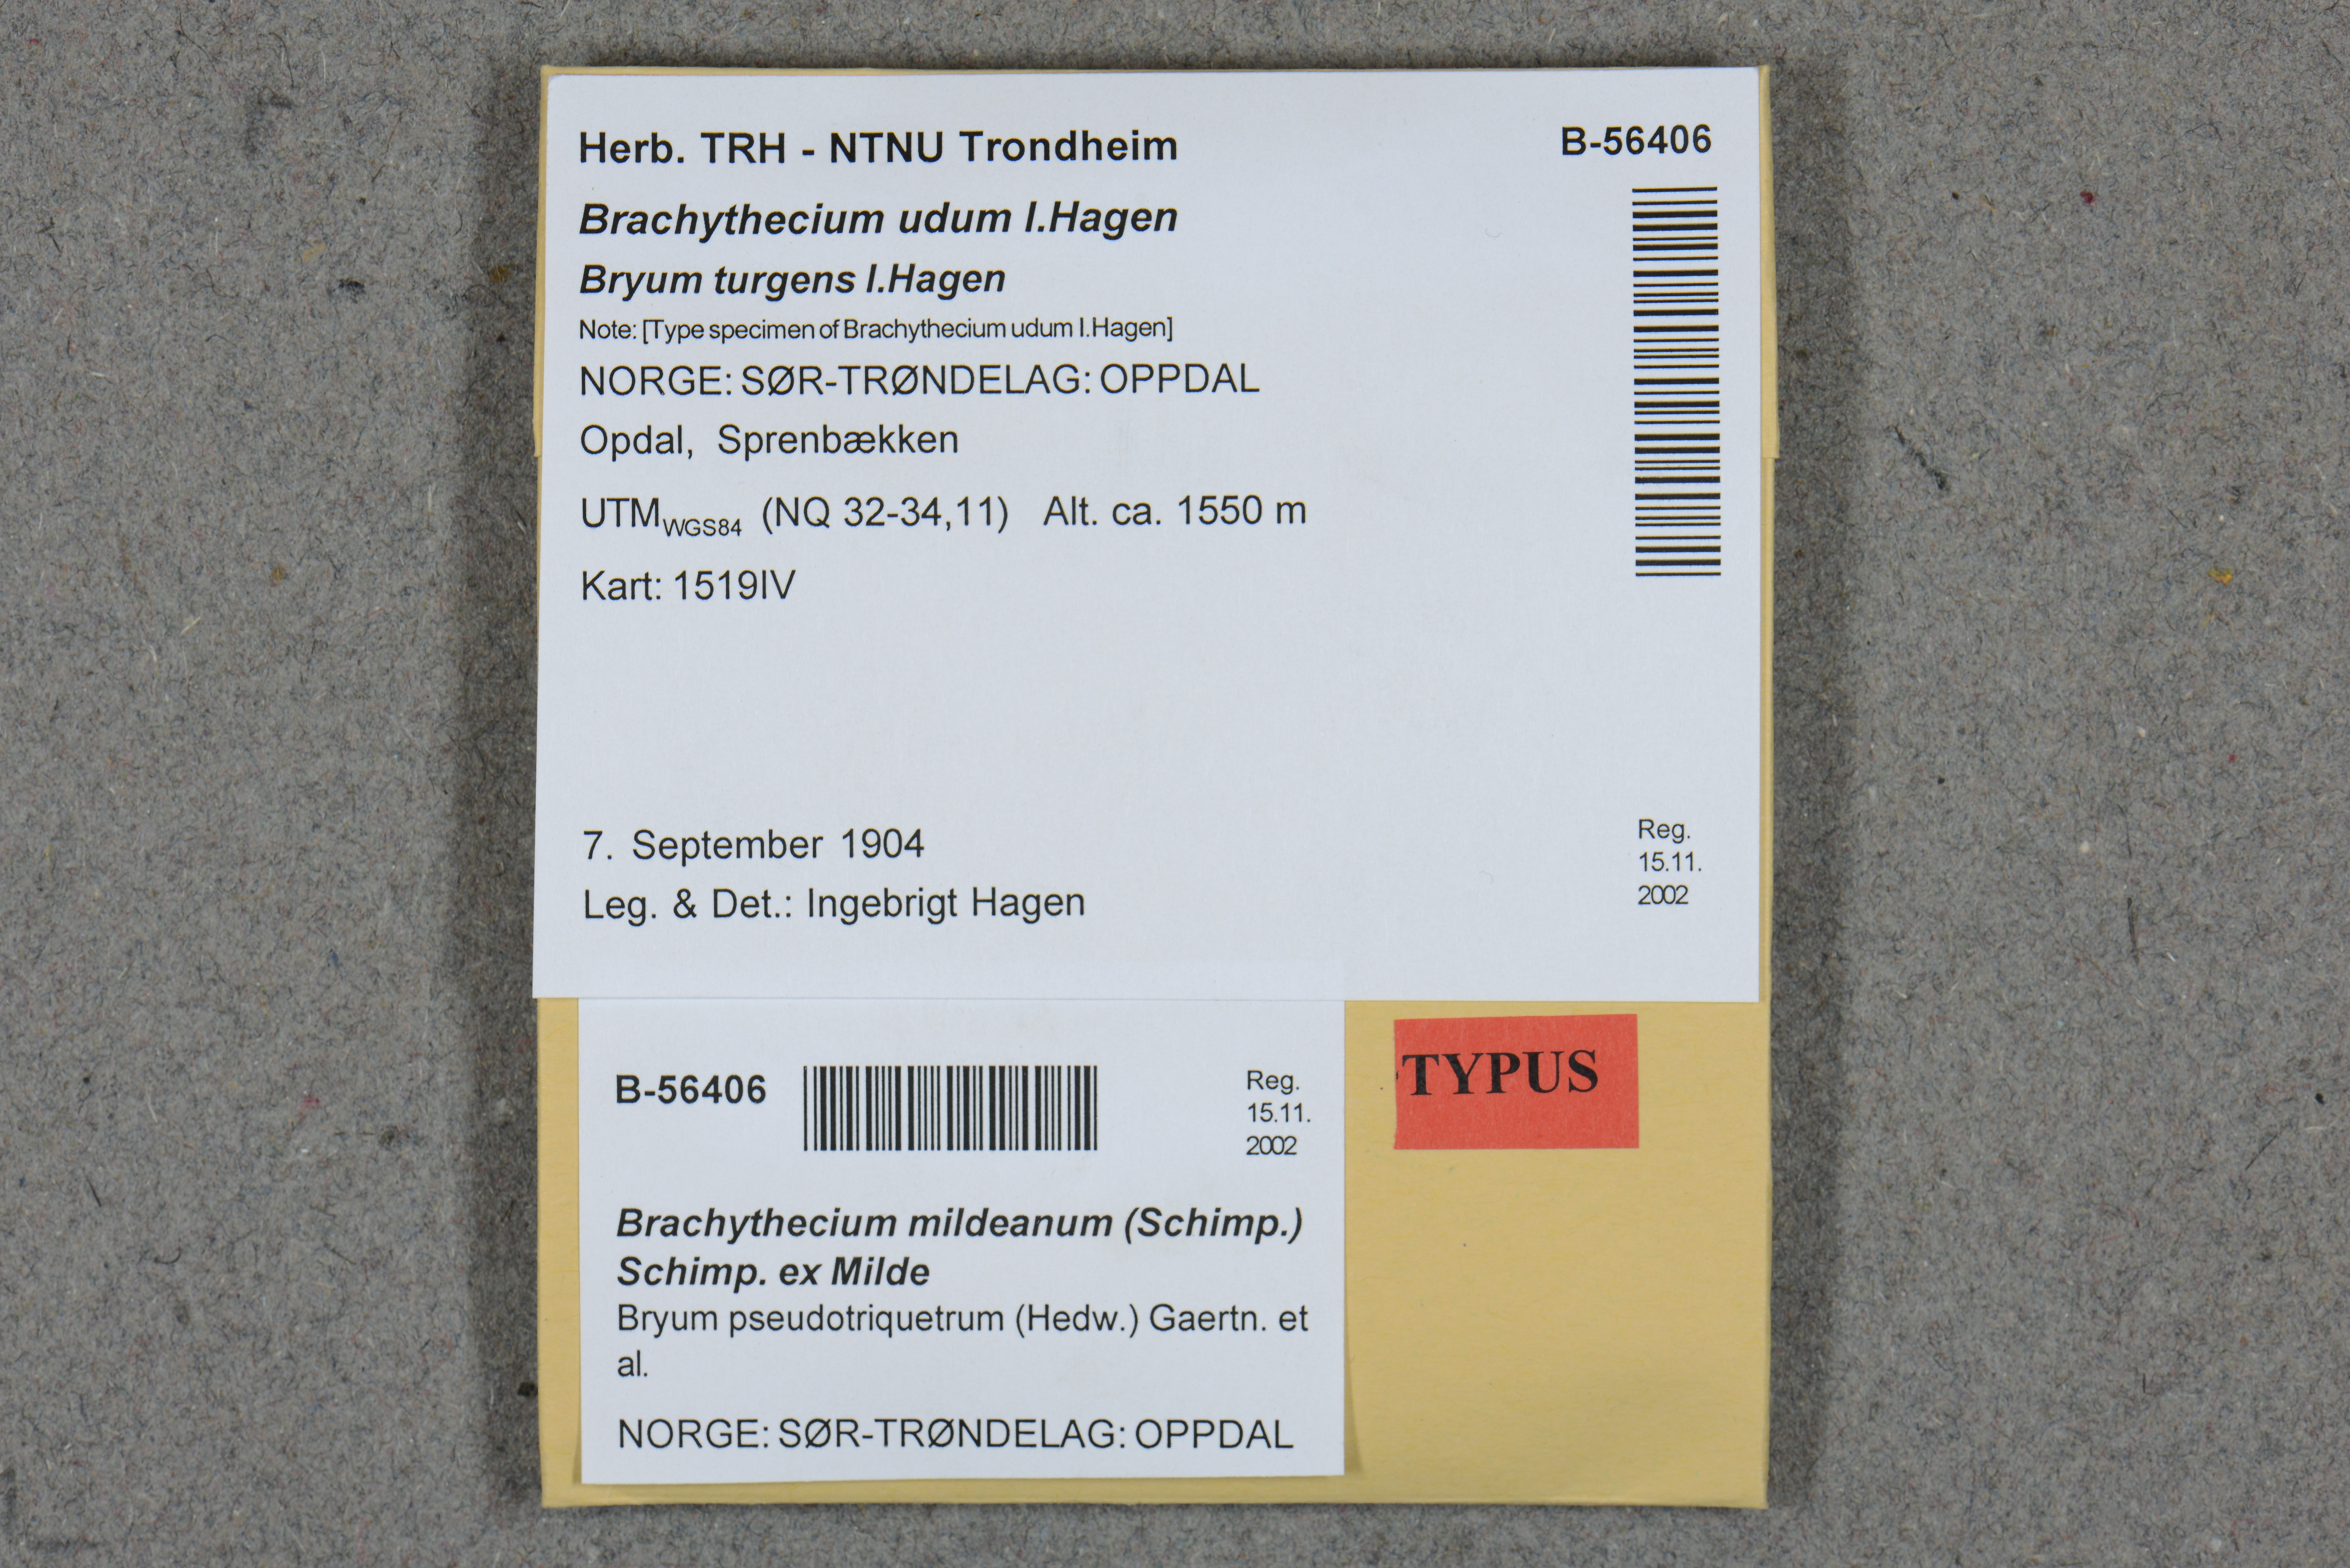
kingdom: Plantae
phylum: Bryophyta
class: Bryopsida
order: Hypnales
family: Brachytheciaceae
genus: Brachythecium
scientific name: Brachythecium udum
